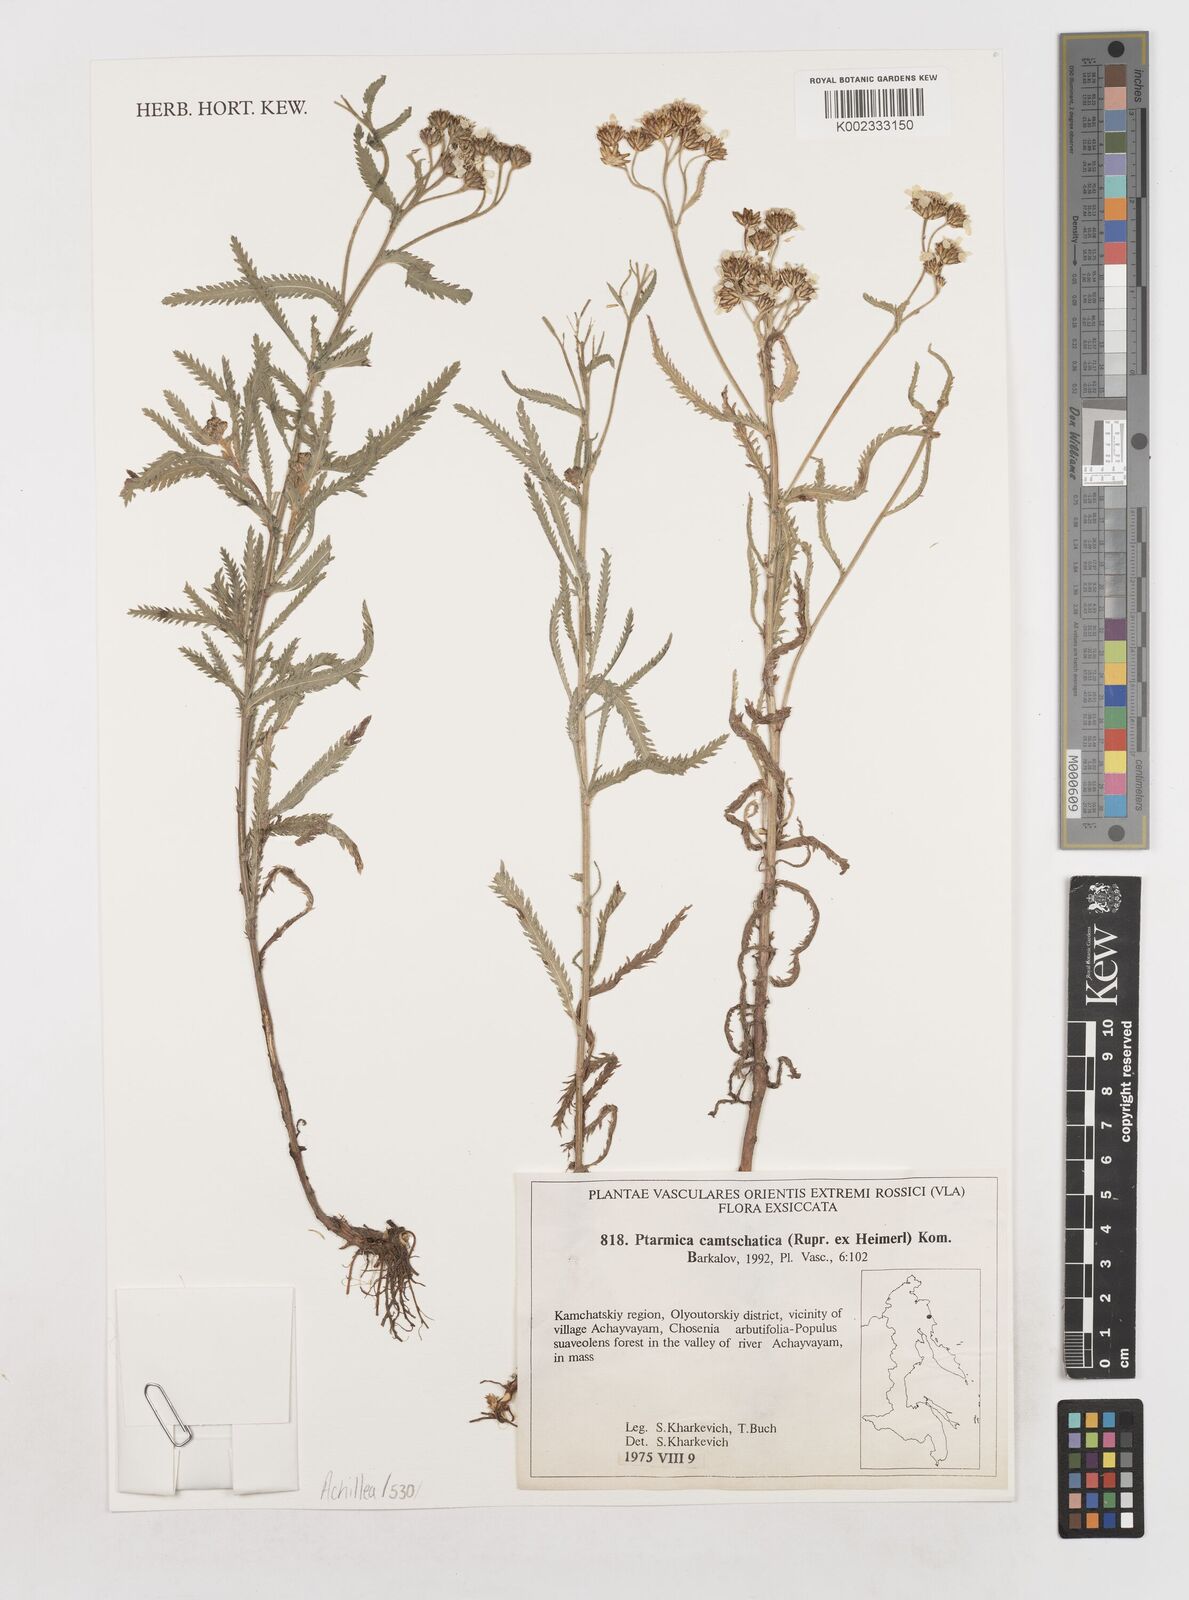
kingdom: Plantae
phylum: Tracheophyta
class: Magnoliopsida
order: Asterales
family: Asteraceae
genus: Achillea
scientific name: Achillea alpina
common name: Siberian yarrow
